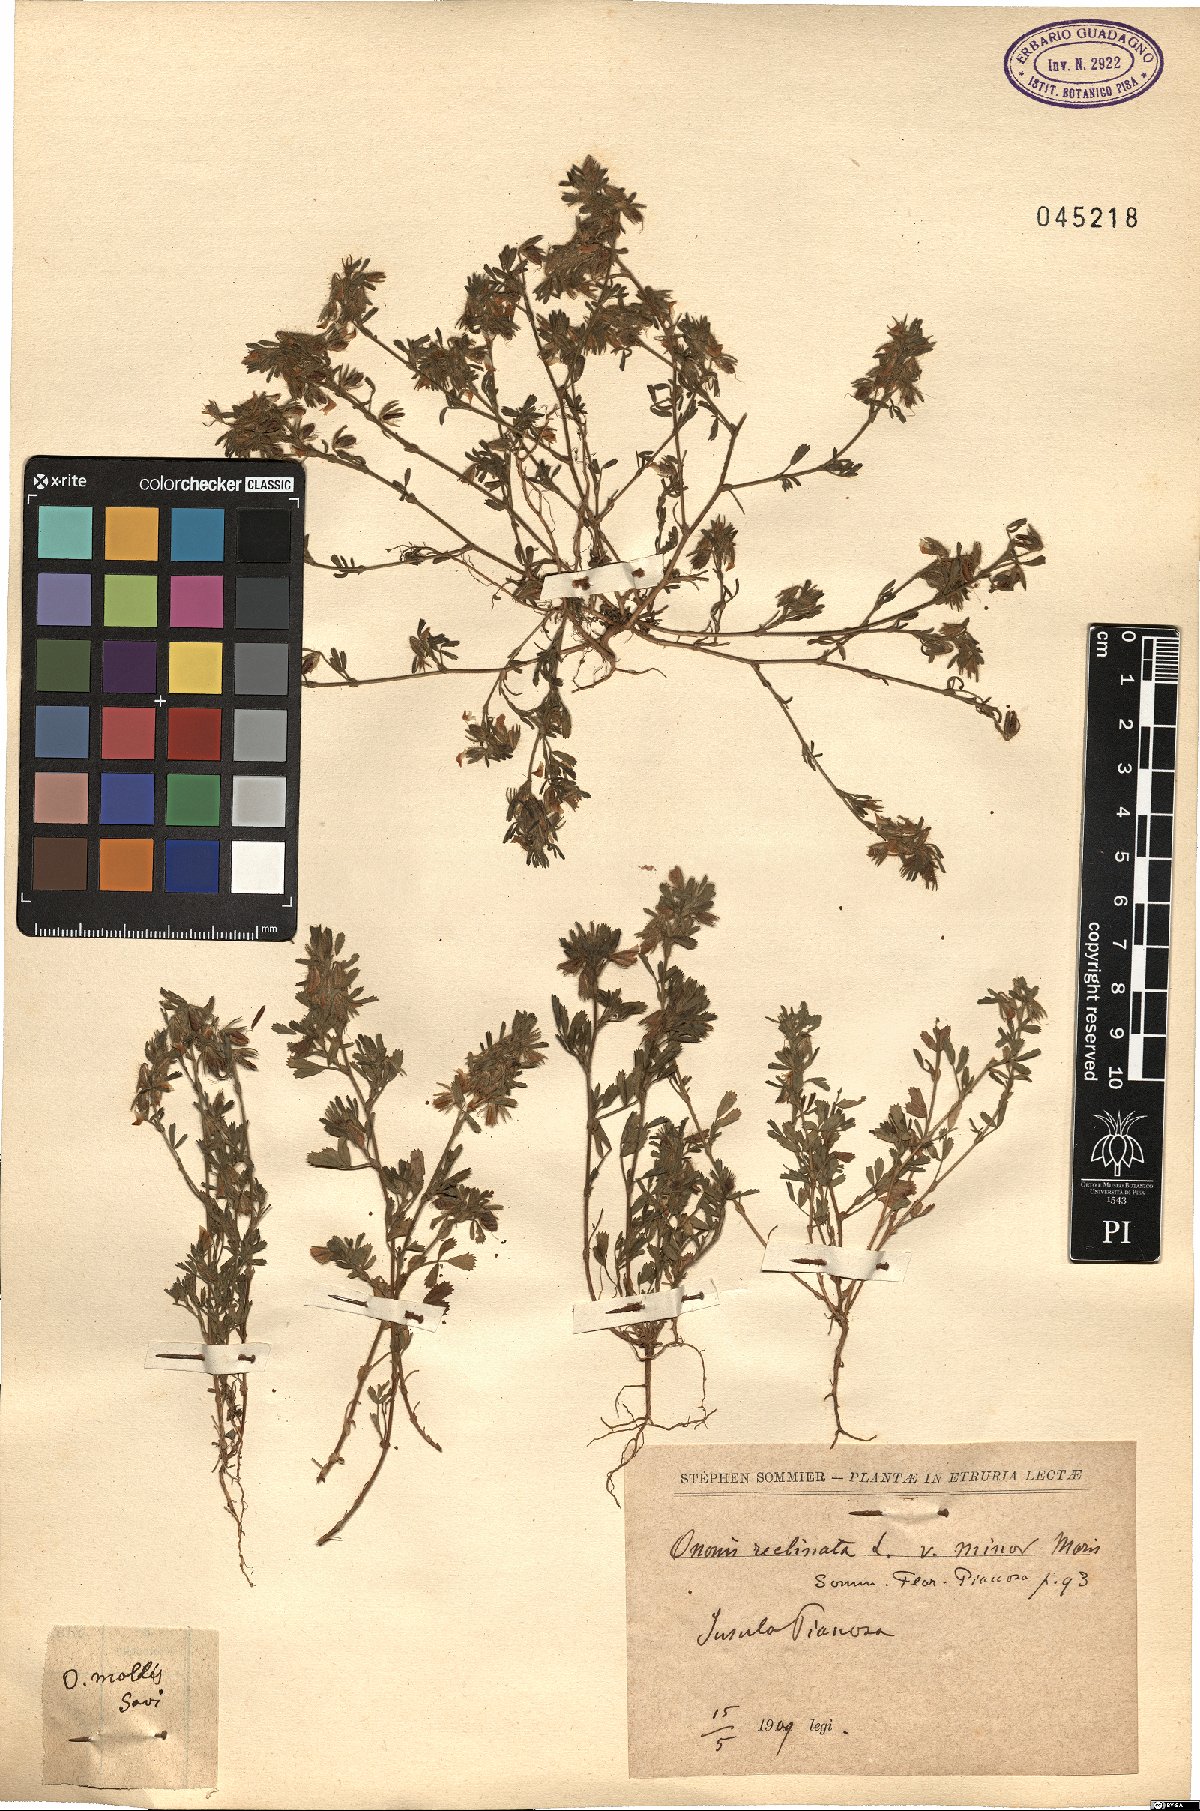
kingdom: Plantae
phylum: Tracheophyta
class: Magnoliopsida
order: Fabales
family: Fabaceae
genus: Ononis
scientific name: Ononis reclinata
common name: Small restharrow
